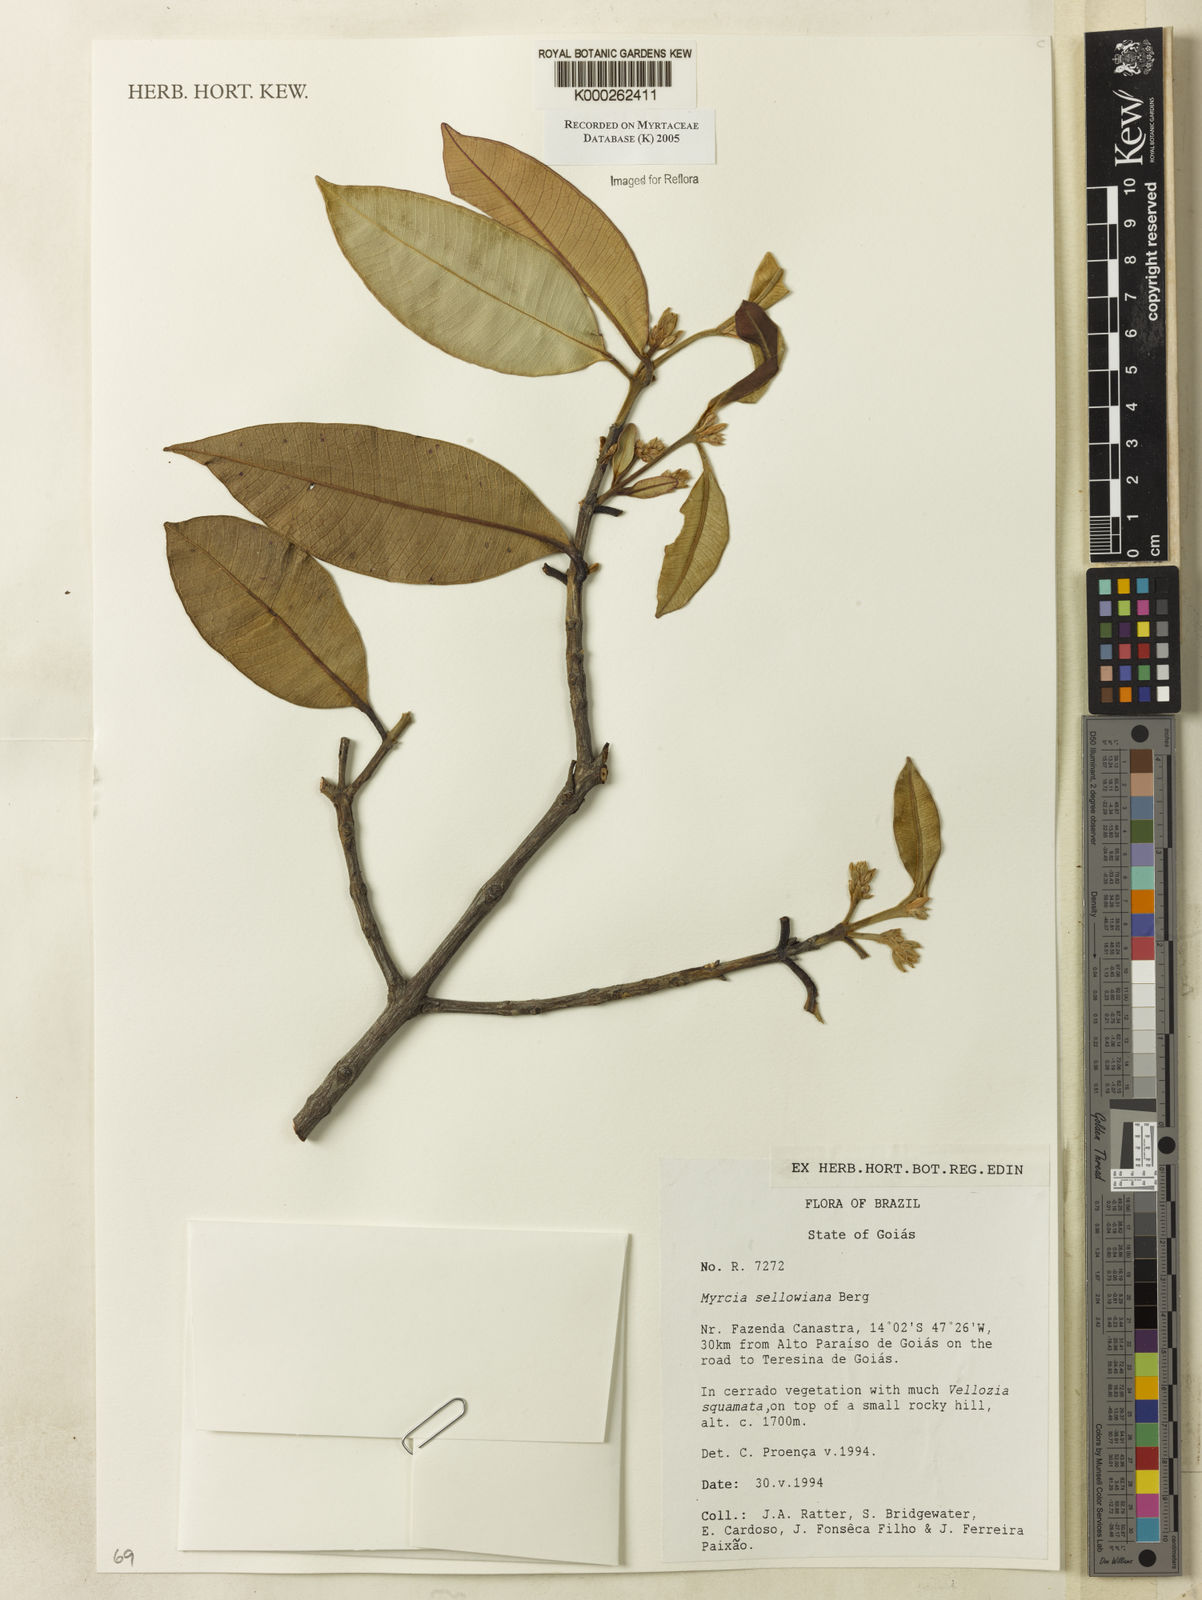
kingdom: Plantae
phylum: Tracheophyta
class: Magnoliopsida
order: Myrtales
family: Myrtaceae
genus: Myrcia
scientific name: Myrcia splendens
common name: Surinam cherry
